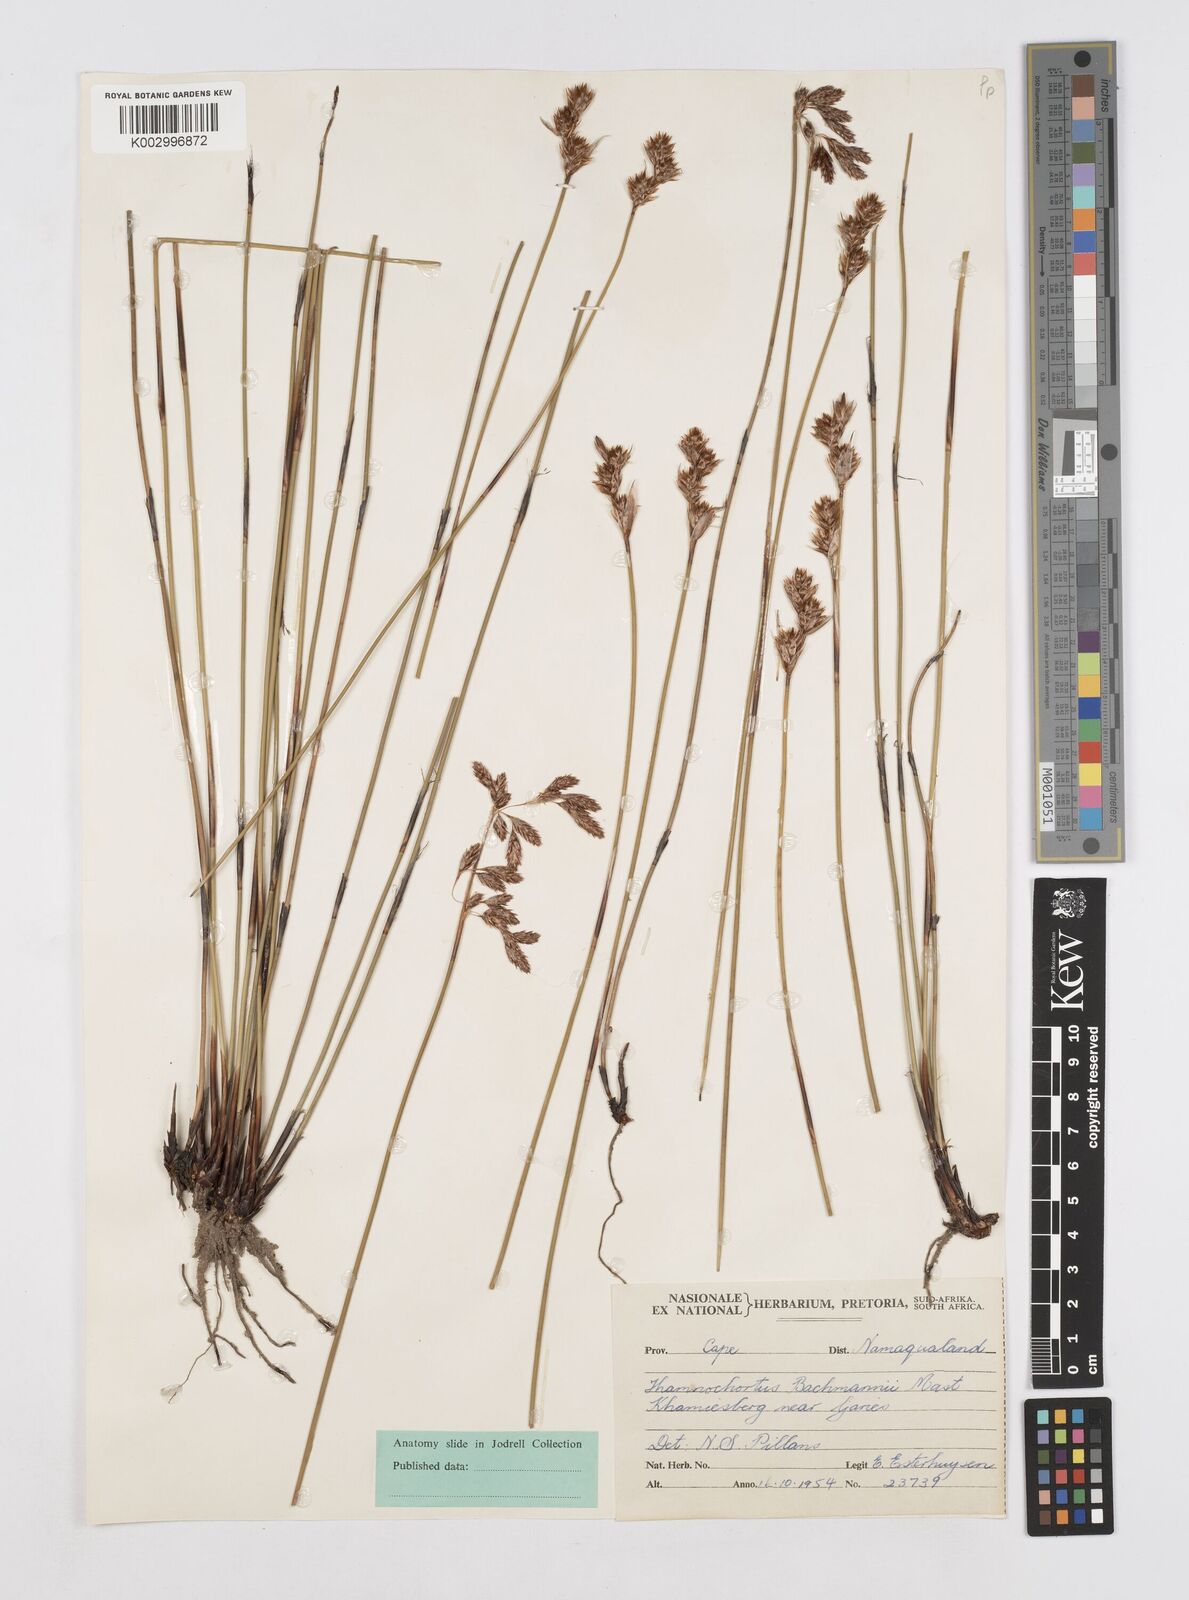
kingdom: Plantae
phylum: Tracheophyta
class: Liliopsida
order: Poales
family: Restionaceae
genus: Thamnochortus
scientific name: Thamnochortus bachmannii
